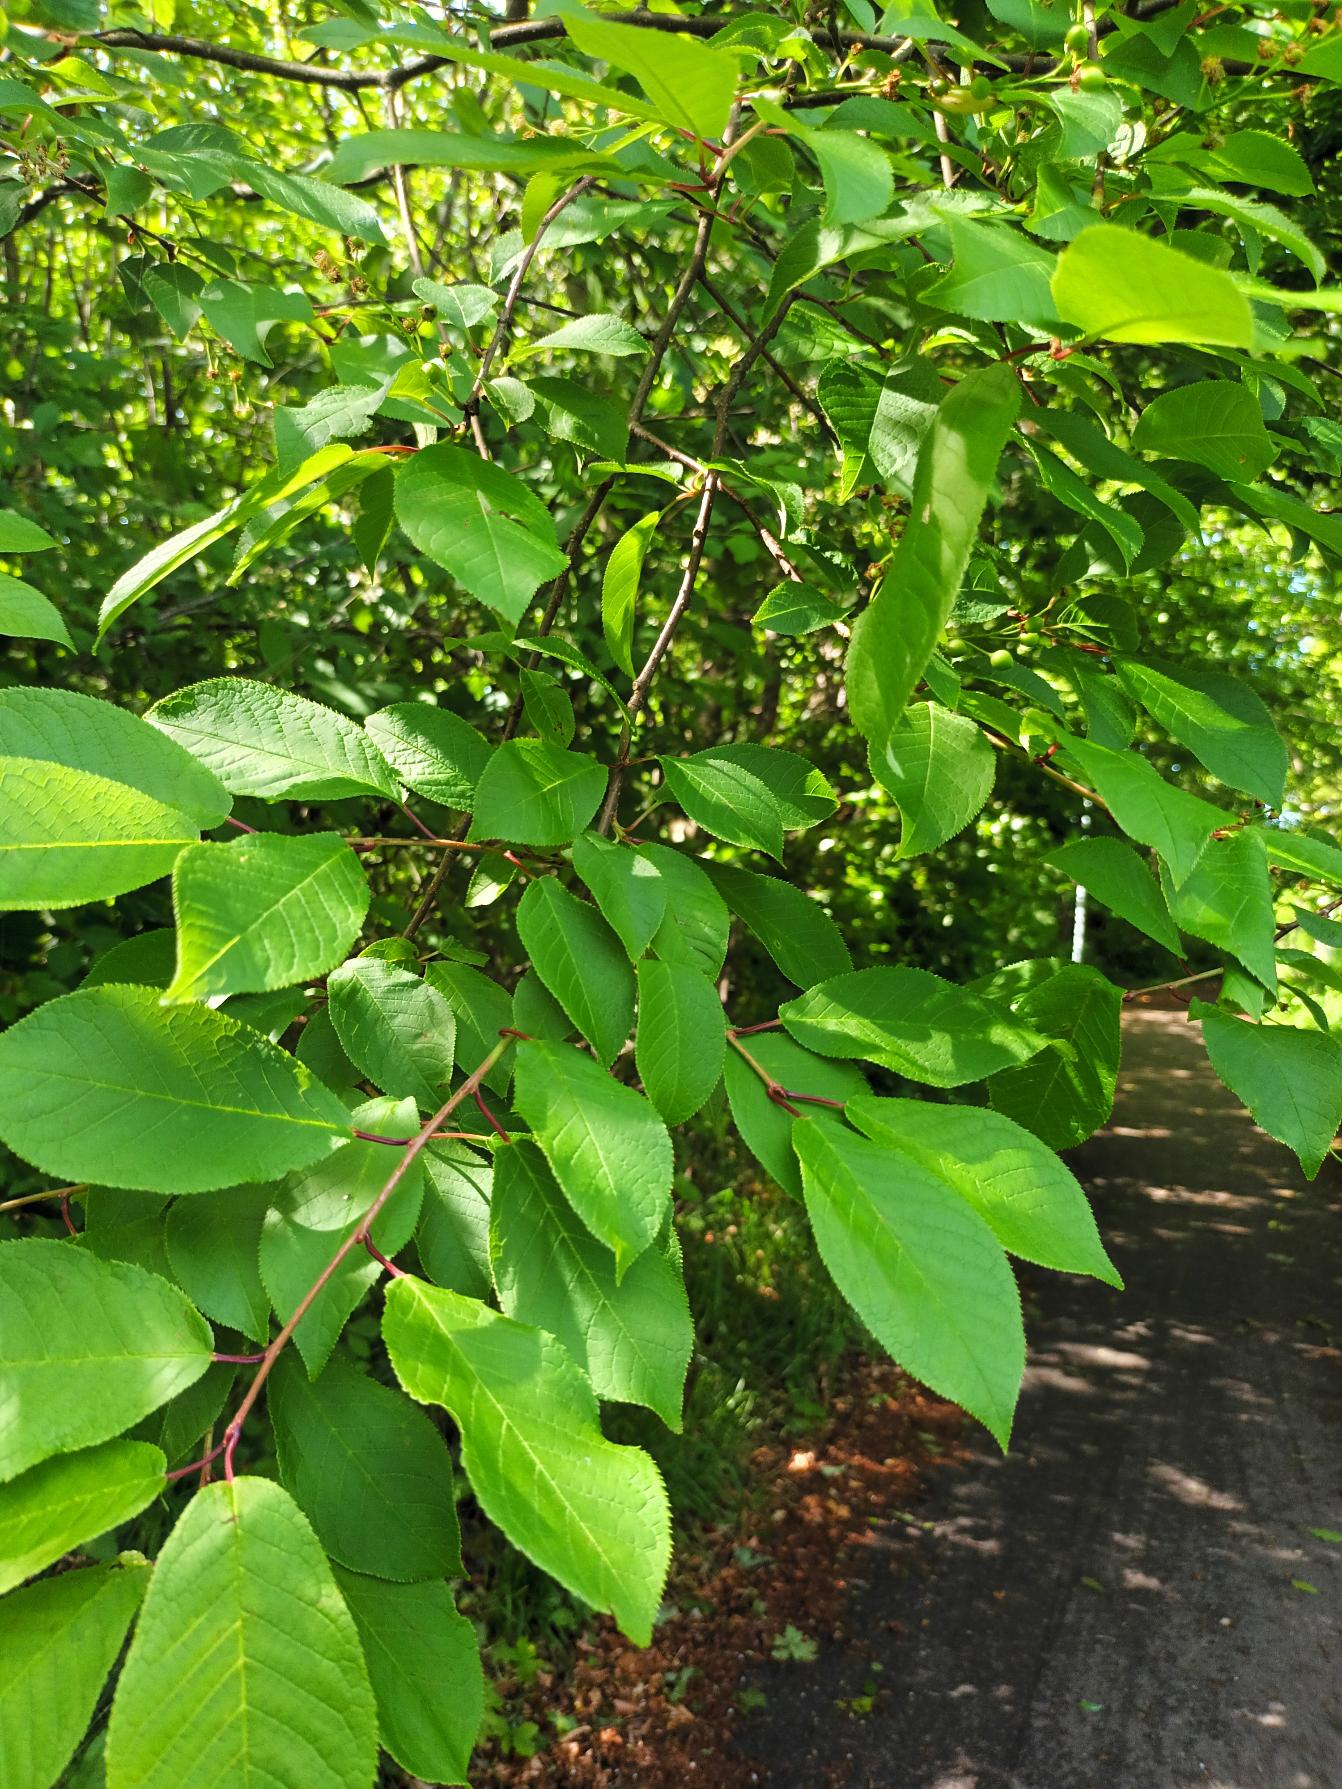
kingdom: Plantae
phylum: Tracheophyta
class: Magnoliopsida
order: Rosales
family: Rosaceae
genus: Prunus
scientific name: Prunus padus
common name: Almindelig hæg
